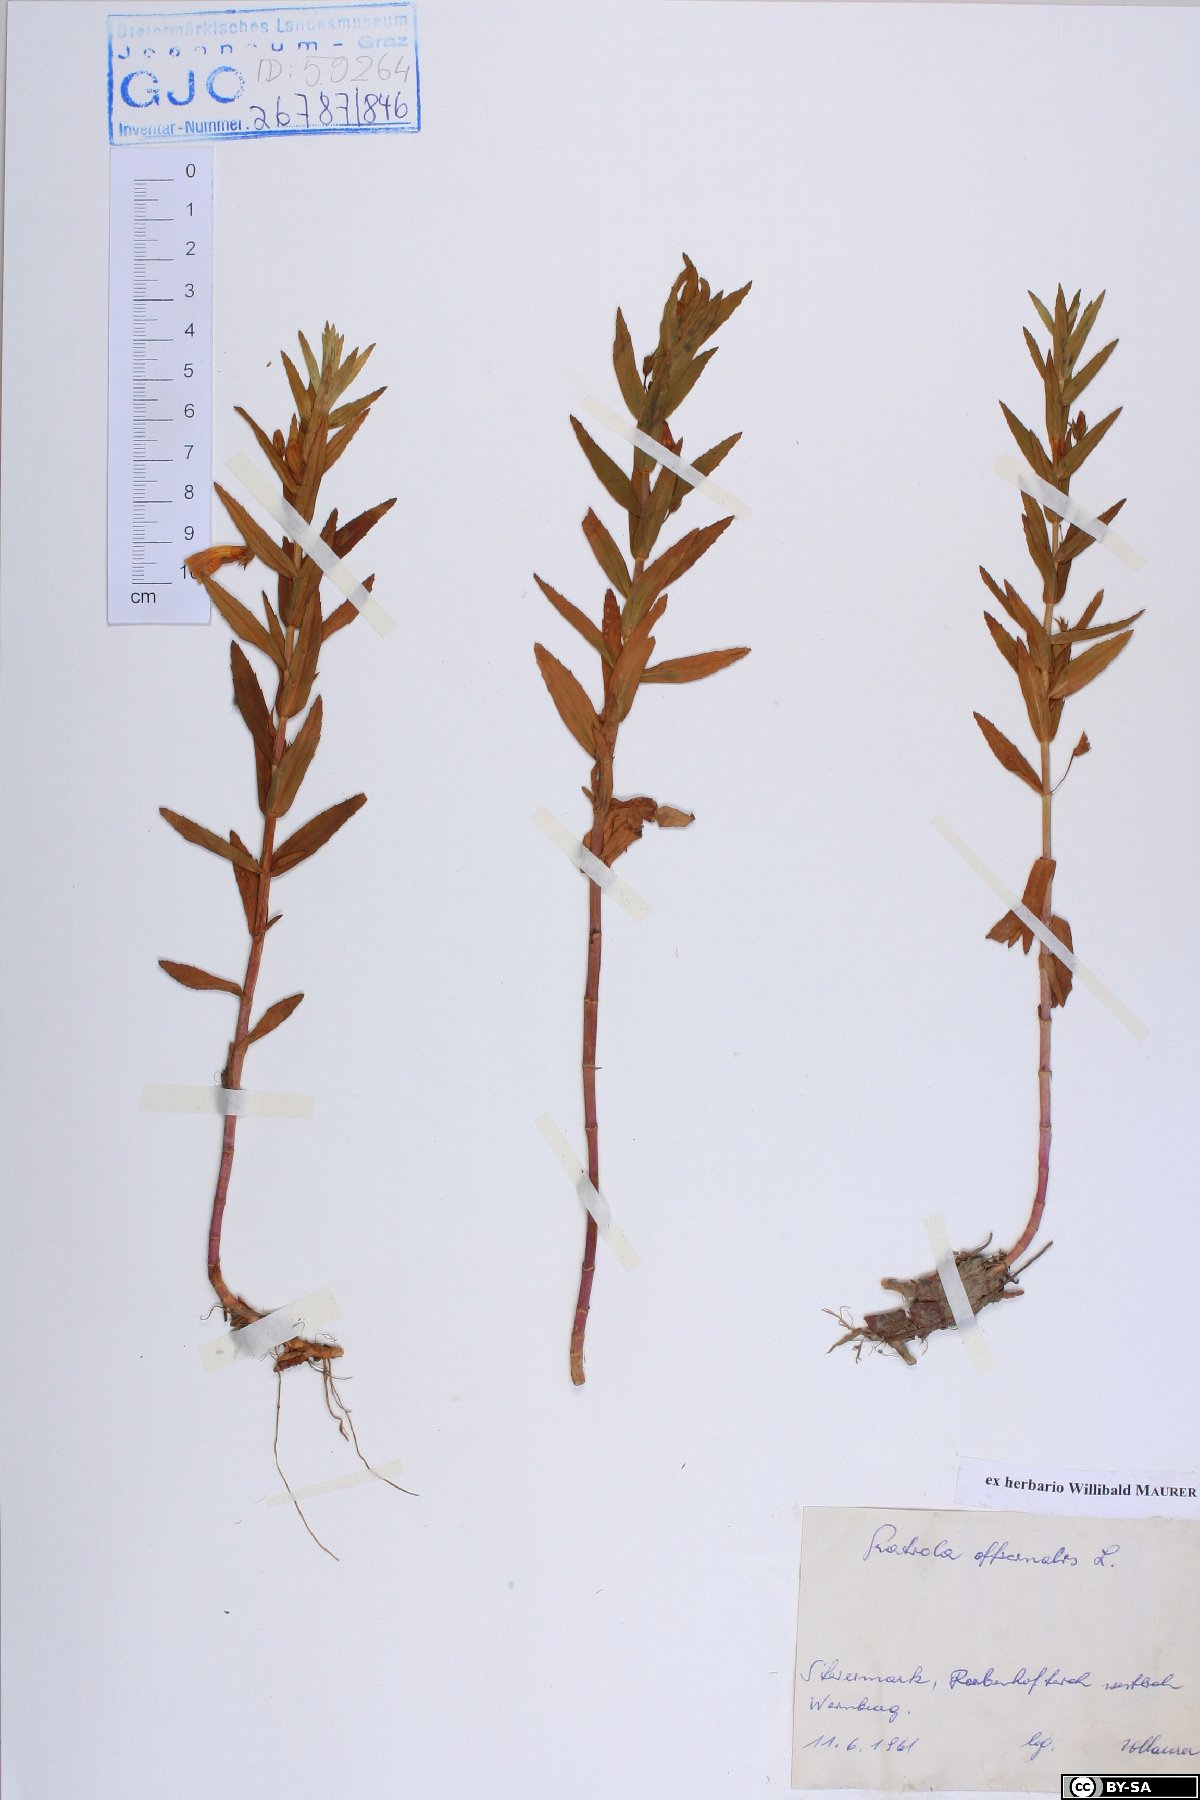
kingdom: Plantae
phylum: Tracheophyta
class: Magnoliopsida
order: Lamiales
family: Plantaginaceae
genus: Gratiola
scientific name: Gratiola officinalis
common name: Gratiola
